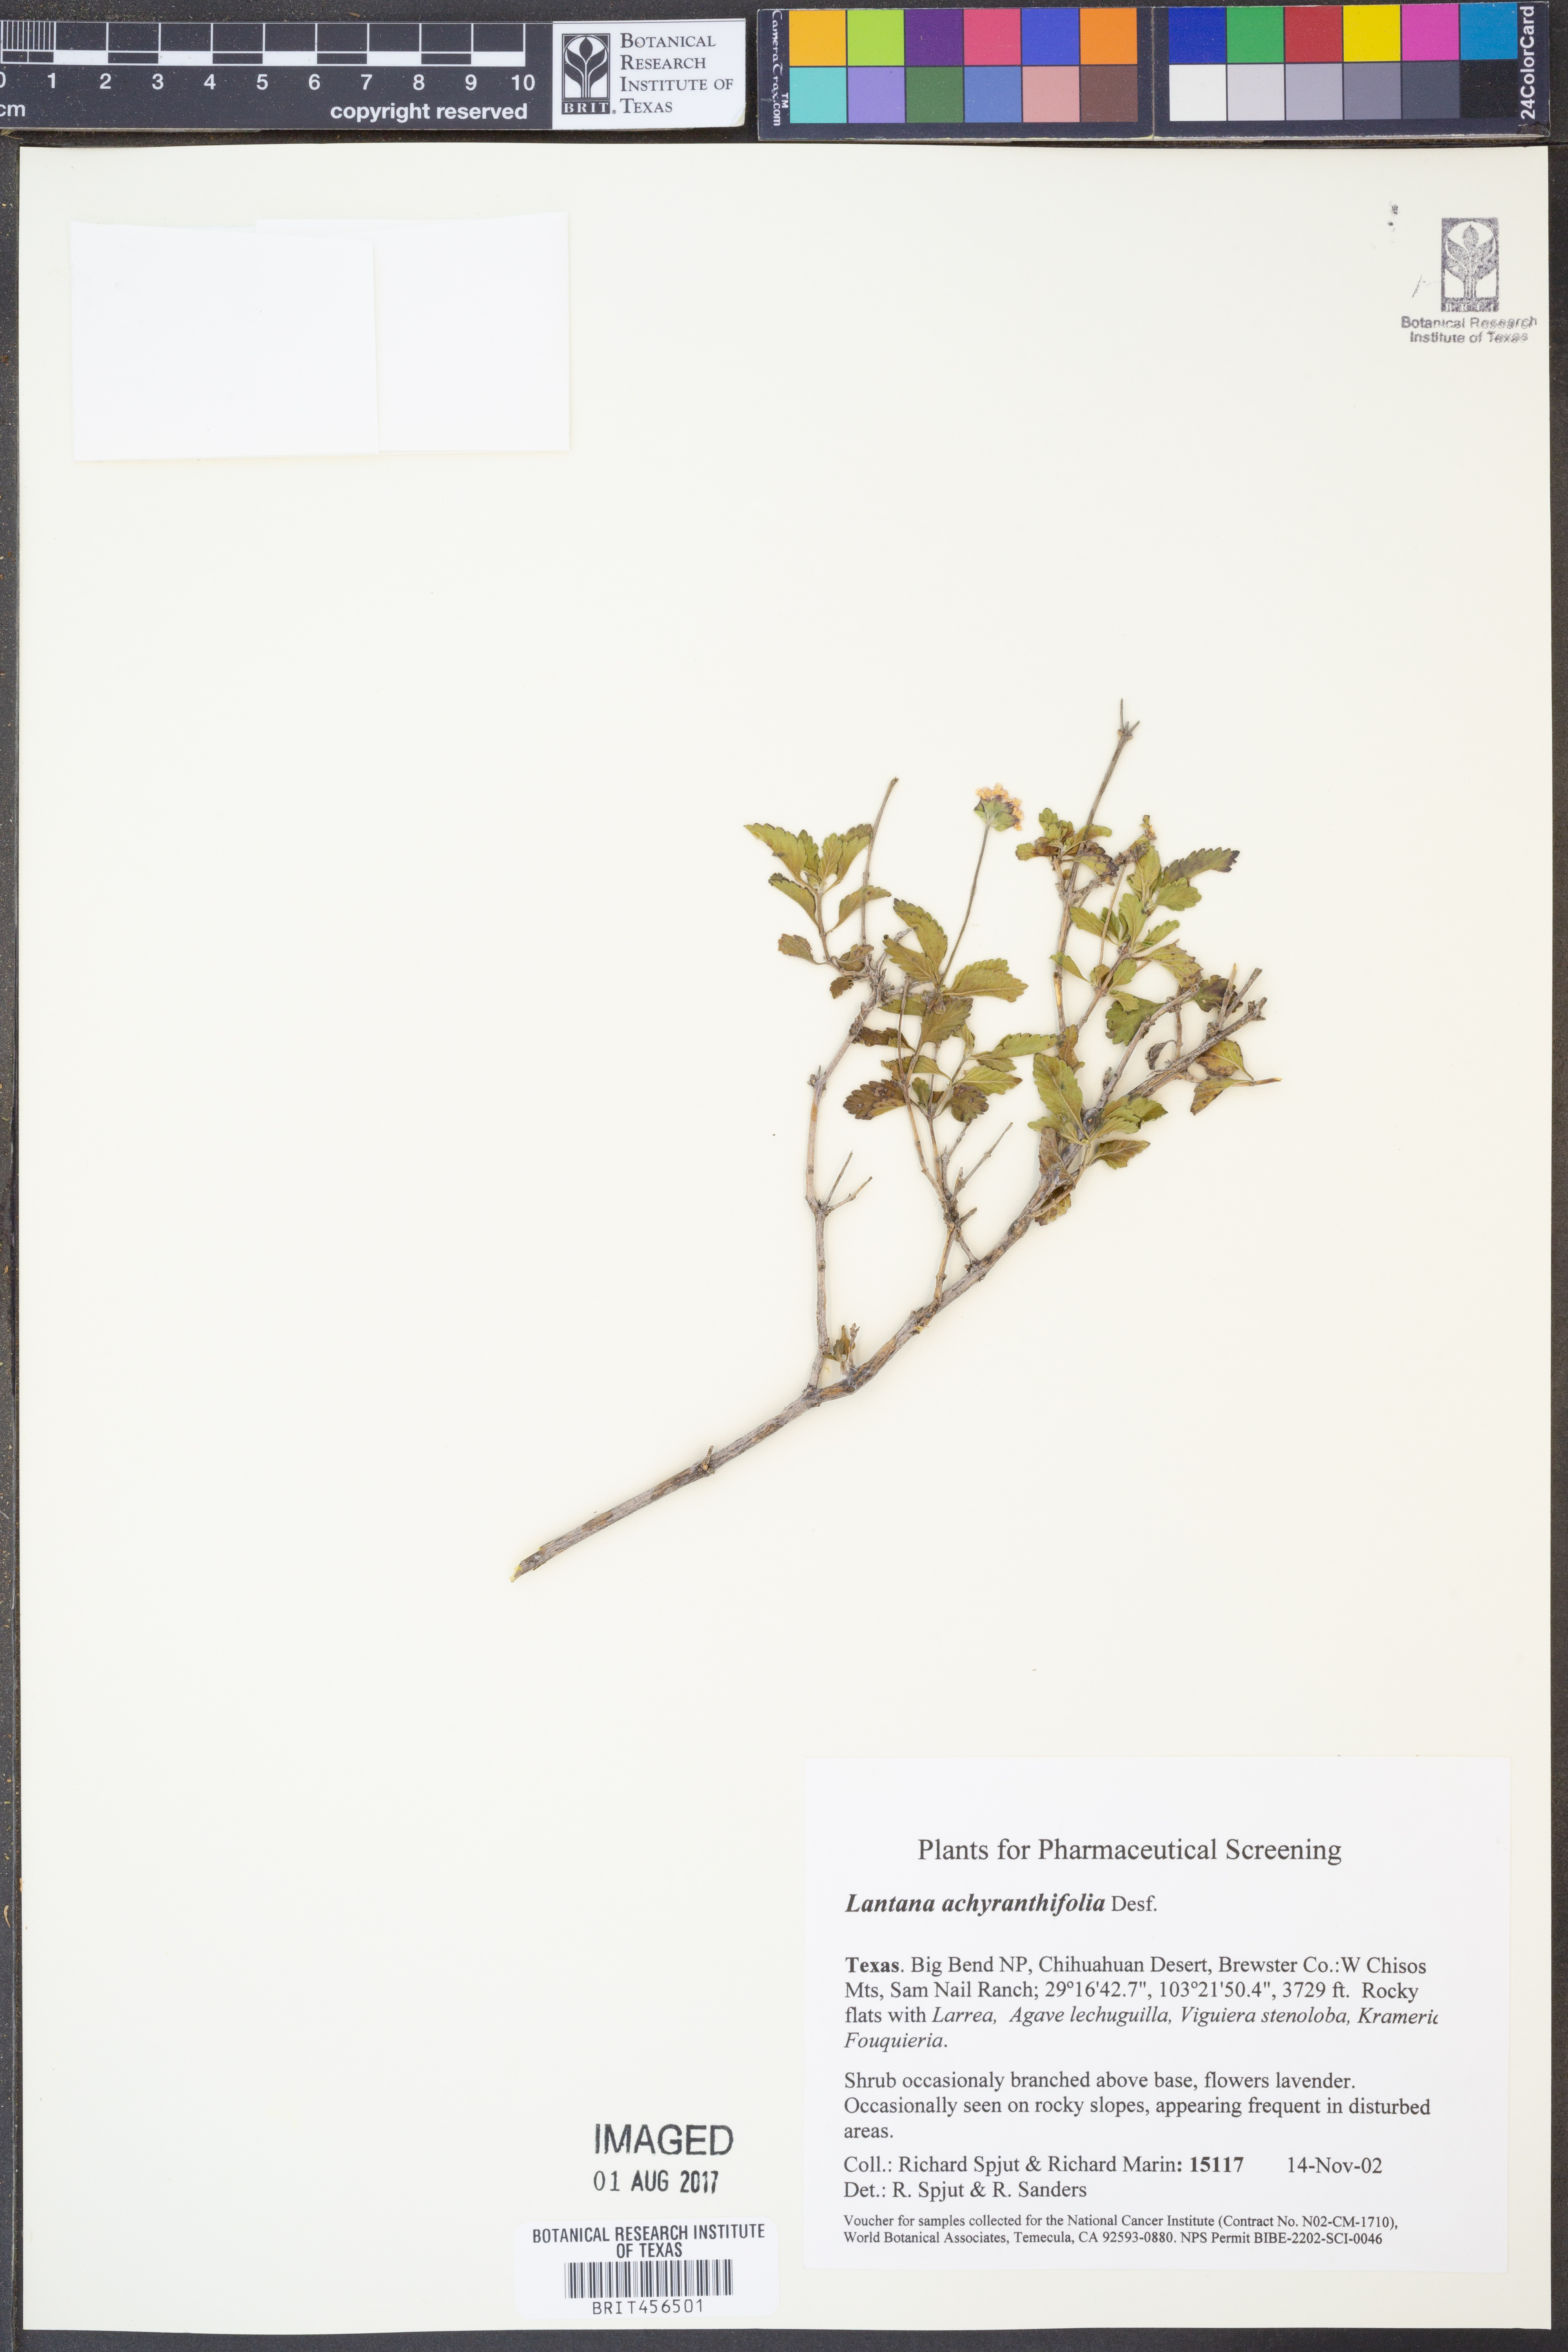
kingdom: Plantae
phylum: Tracheophyta
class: Magnoliopsida
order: Lamiales
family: Verbenaceae
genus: Lantana
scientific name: Lantana achyranthifolia
